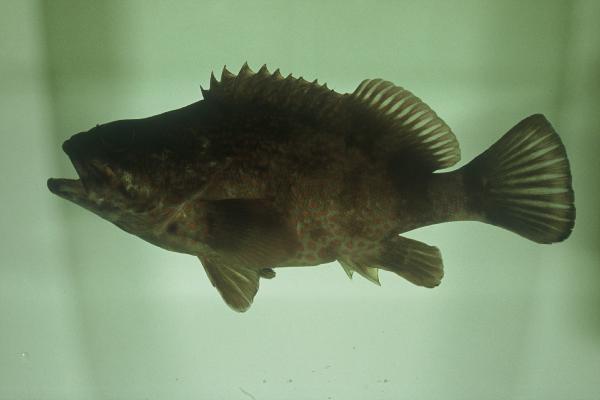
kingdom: Animalia
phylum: Chordata
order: Perciformes
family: Serranidae
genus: Acanthistius
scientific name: Acanthistius sebastoides
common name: Koester
